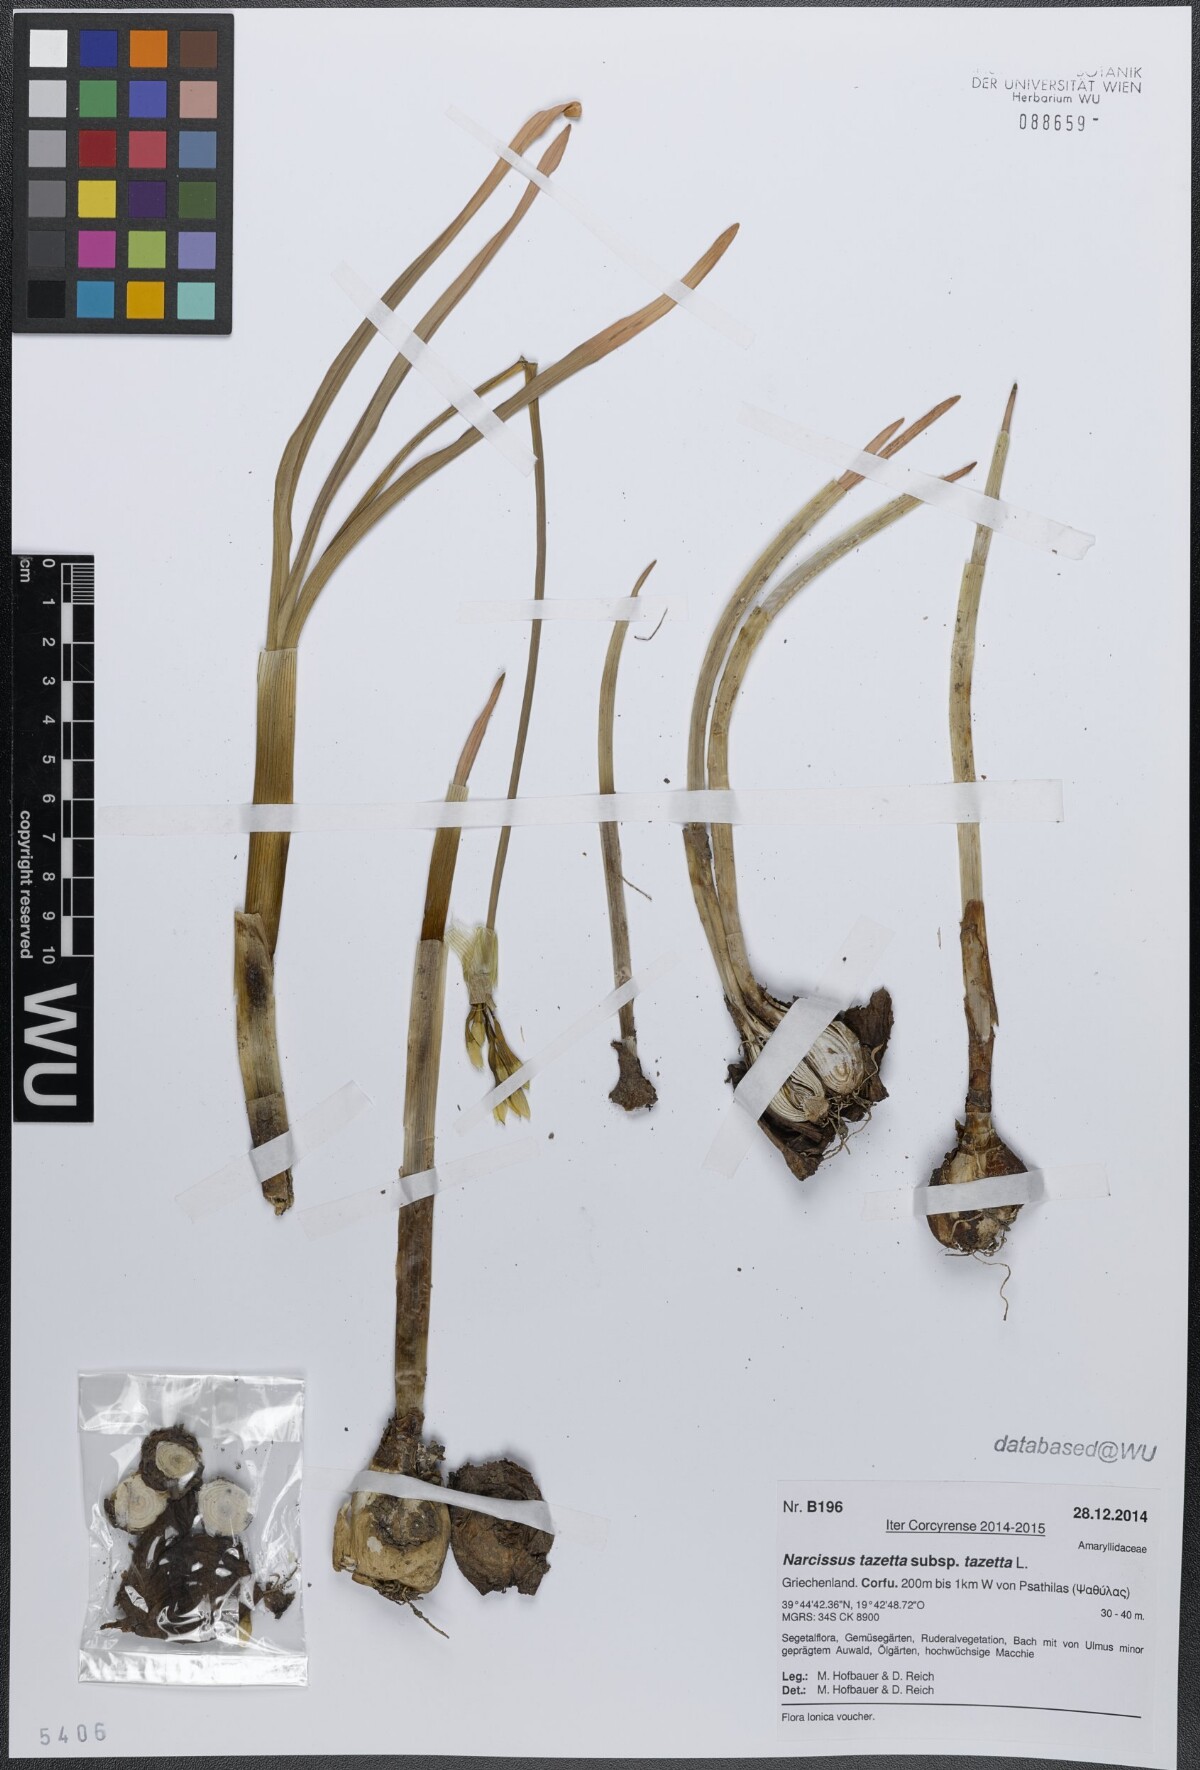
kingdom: Plantae
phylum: Tracheophyta
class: Liliopsida
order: Asparagales
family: Amaryllidaceae
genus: Narcissus
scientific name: Narcissus tazetta
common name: Bunch-flowered daffodil
